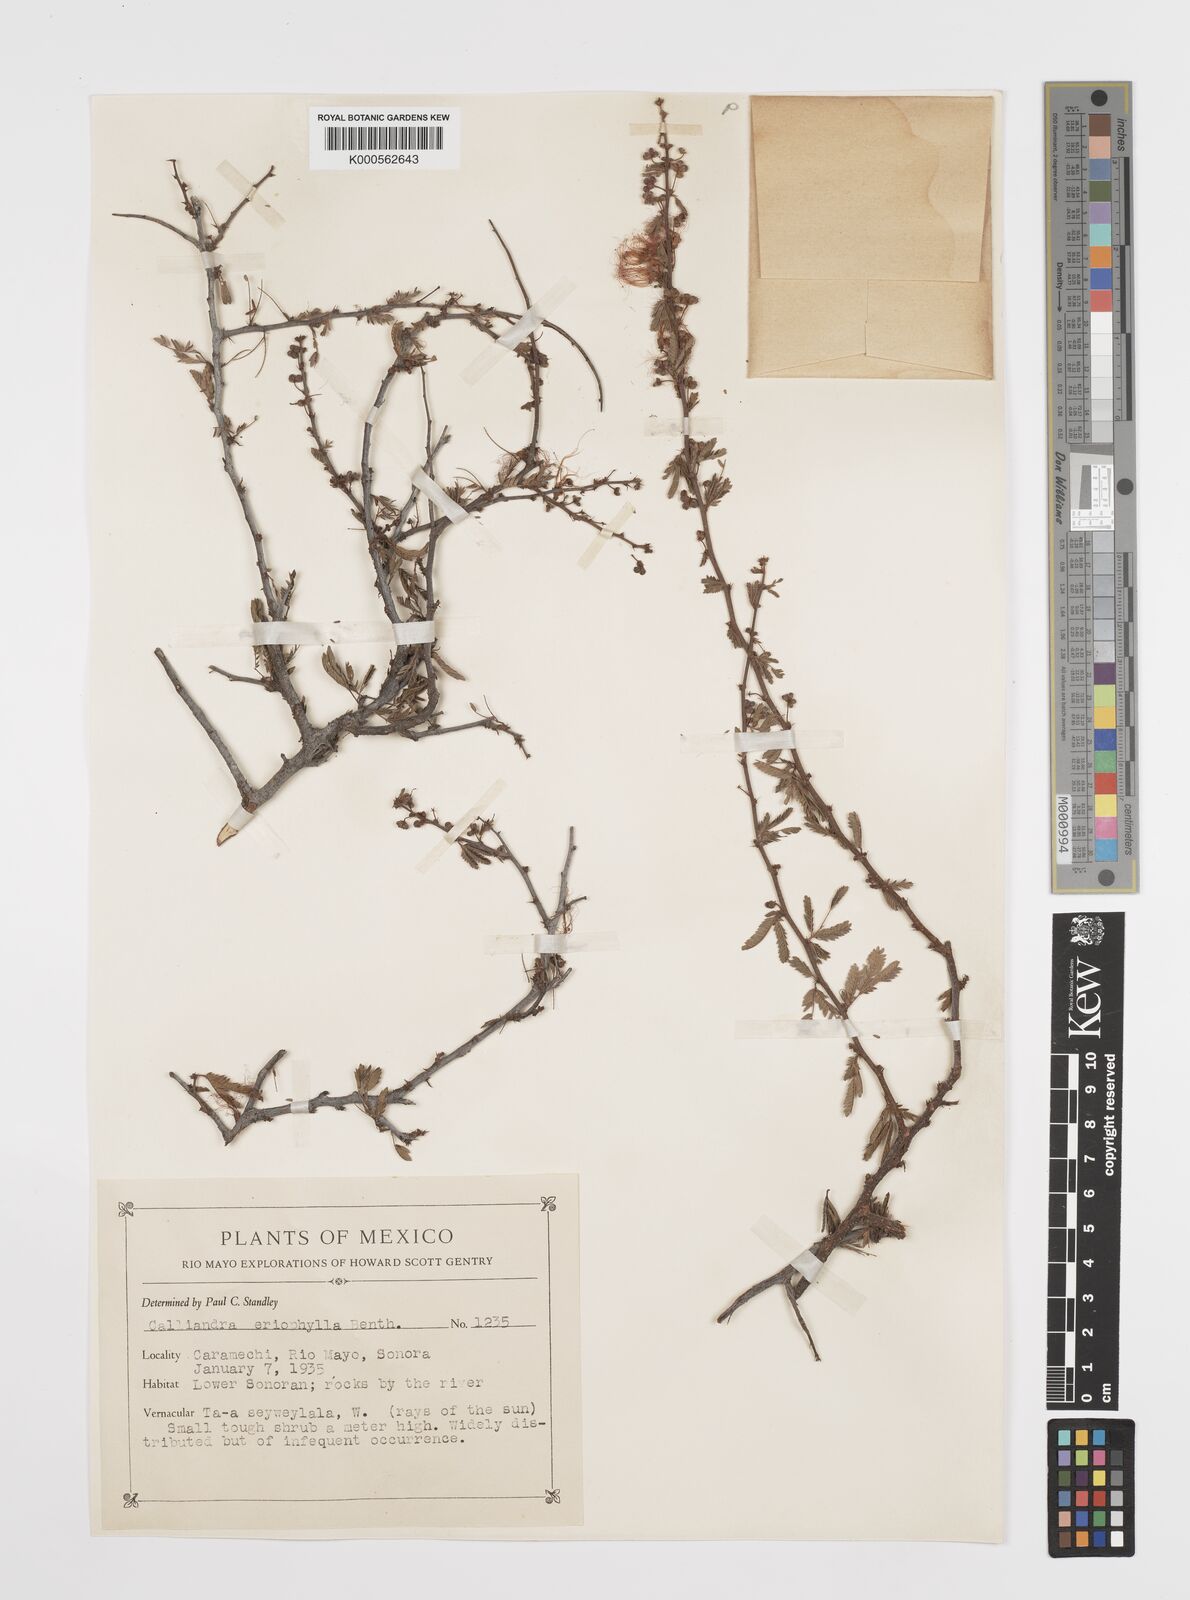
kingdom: Plantae
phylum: Tracheophyta
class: Magnoliopsida
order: Fabales
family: Fabaceae
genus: Calliandra
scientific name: Calliandra eriophylla
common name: Fairy-duster
